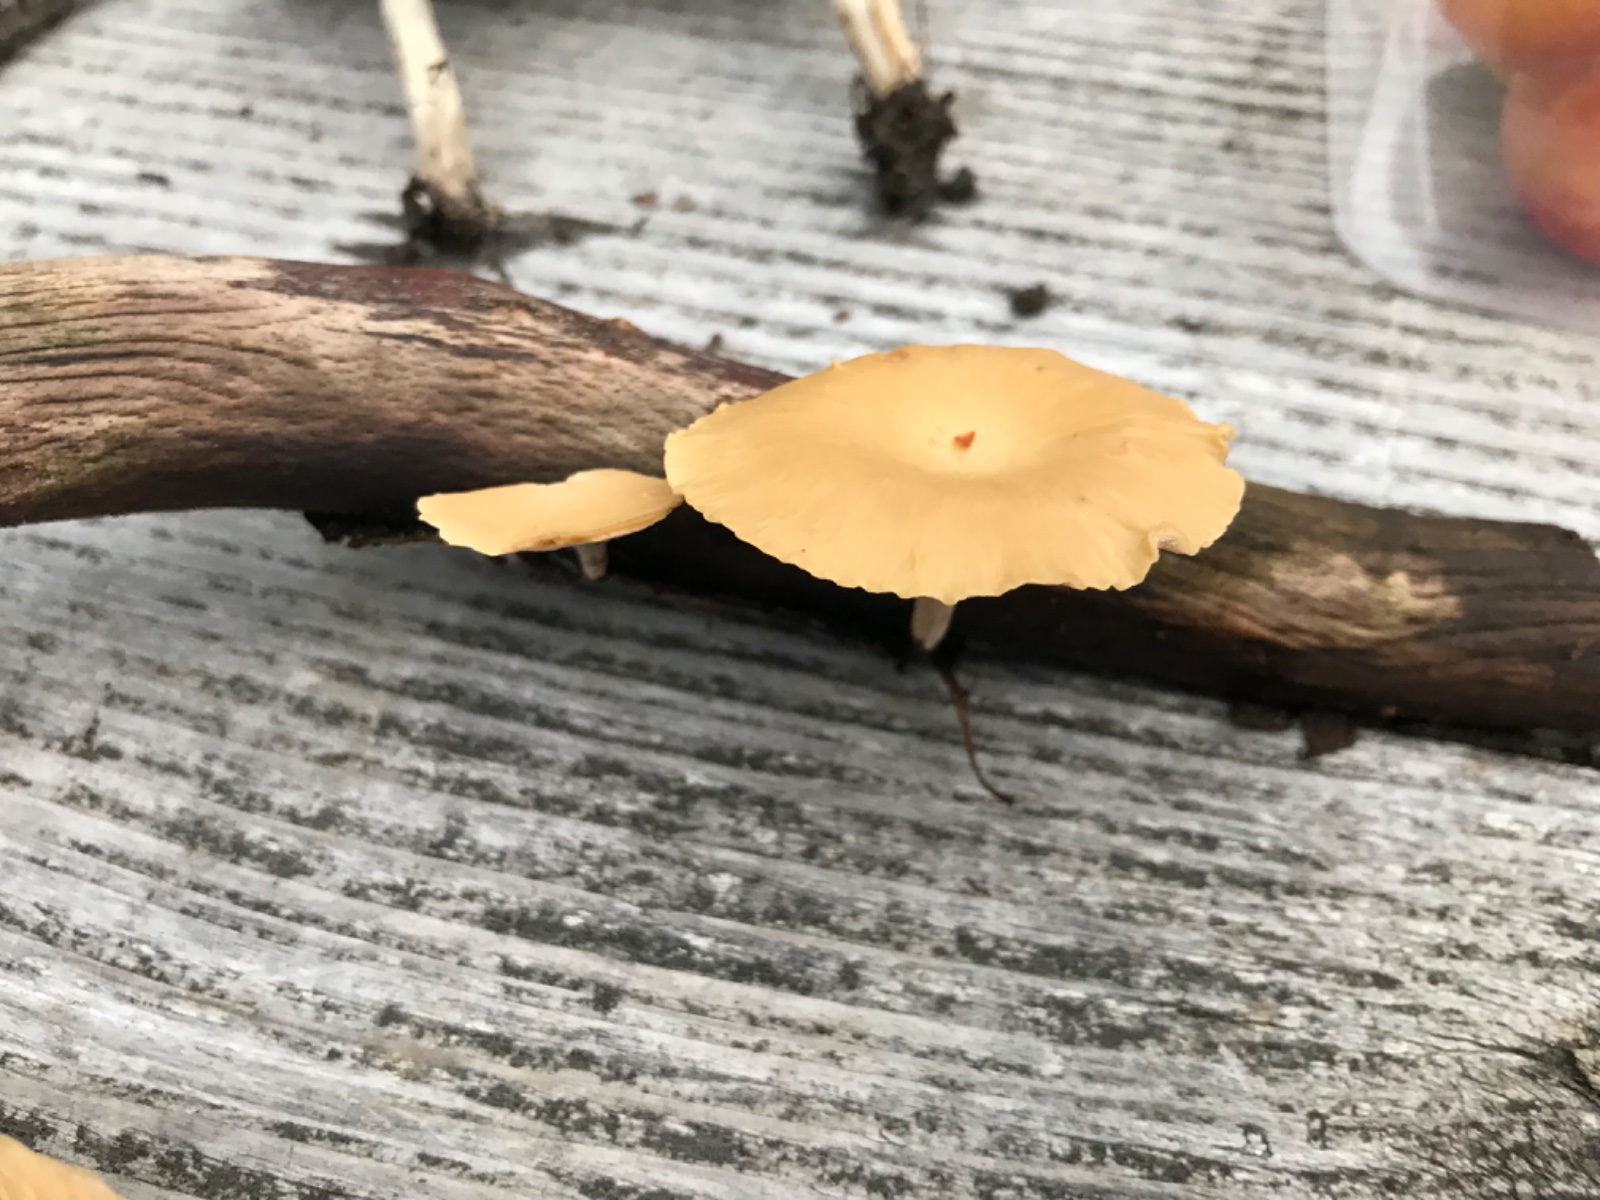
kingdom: Fungi
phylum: Basidiomycota
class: Agaricomycetes
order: Polyporales
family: Polyporaceae
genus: Cerioporus
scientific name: Cerioporus varius
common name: foranderlig stilkporesvamp
